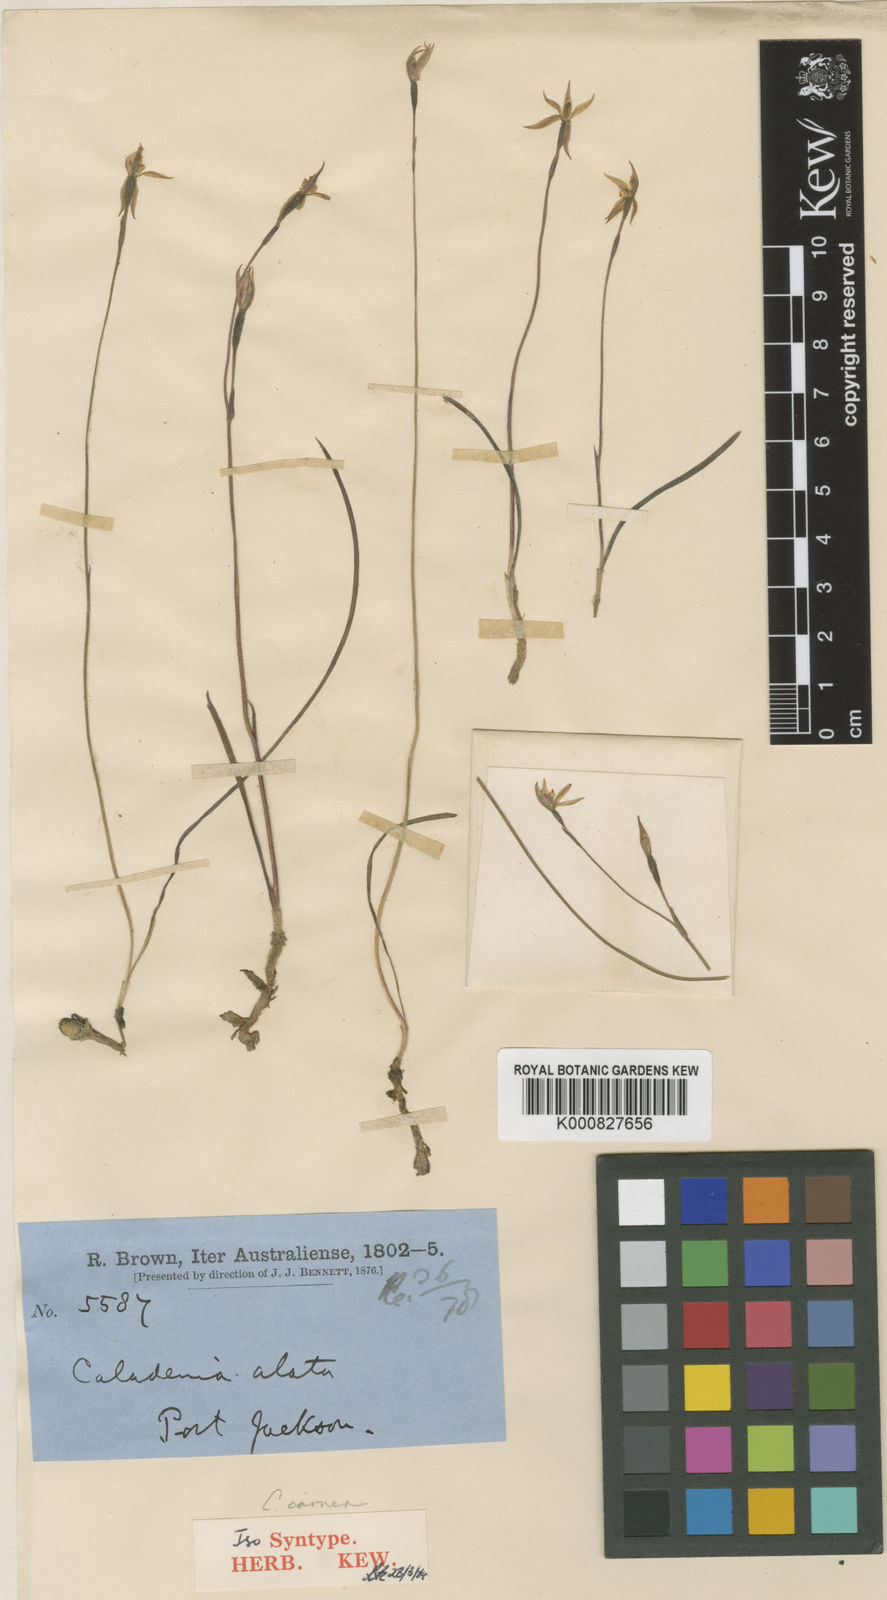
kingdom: Plantae
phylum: Tracheophyta
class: Liliopsida
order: Asparagales
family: Orchidaceae
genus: Caladenia
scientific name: Caladenia alata
